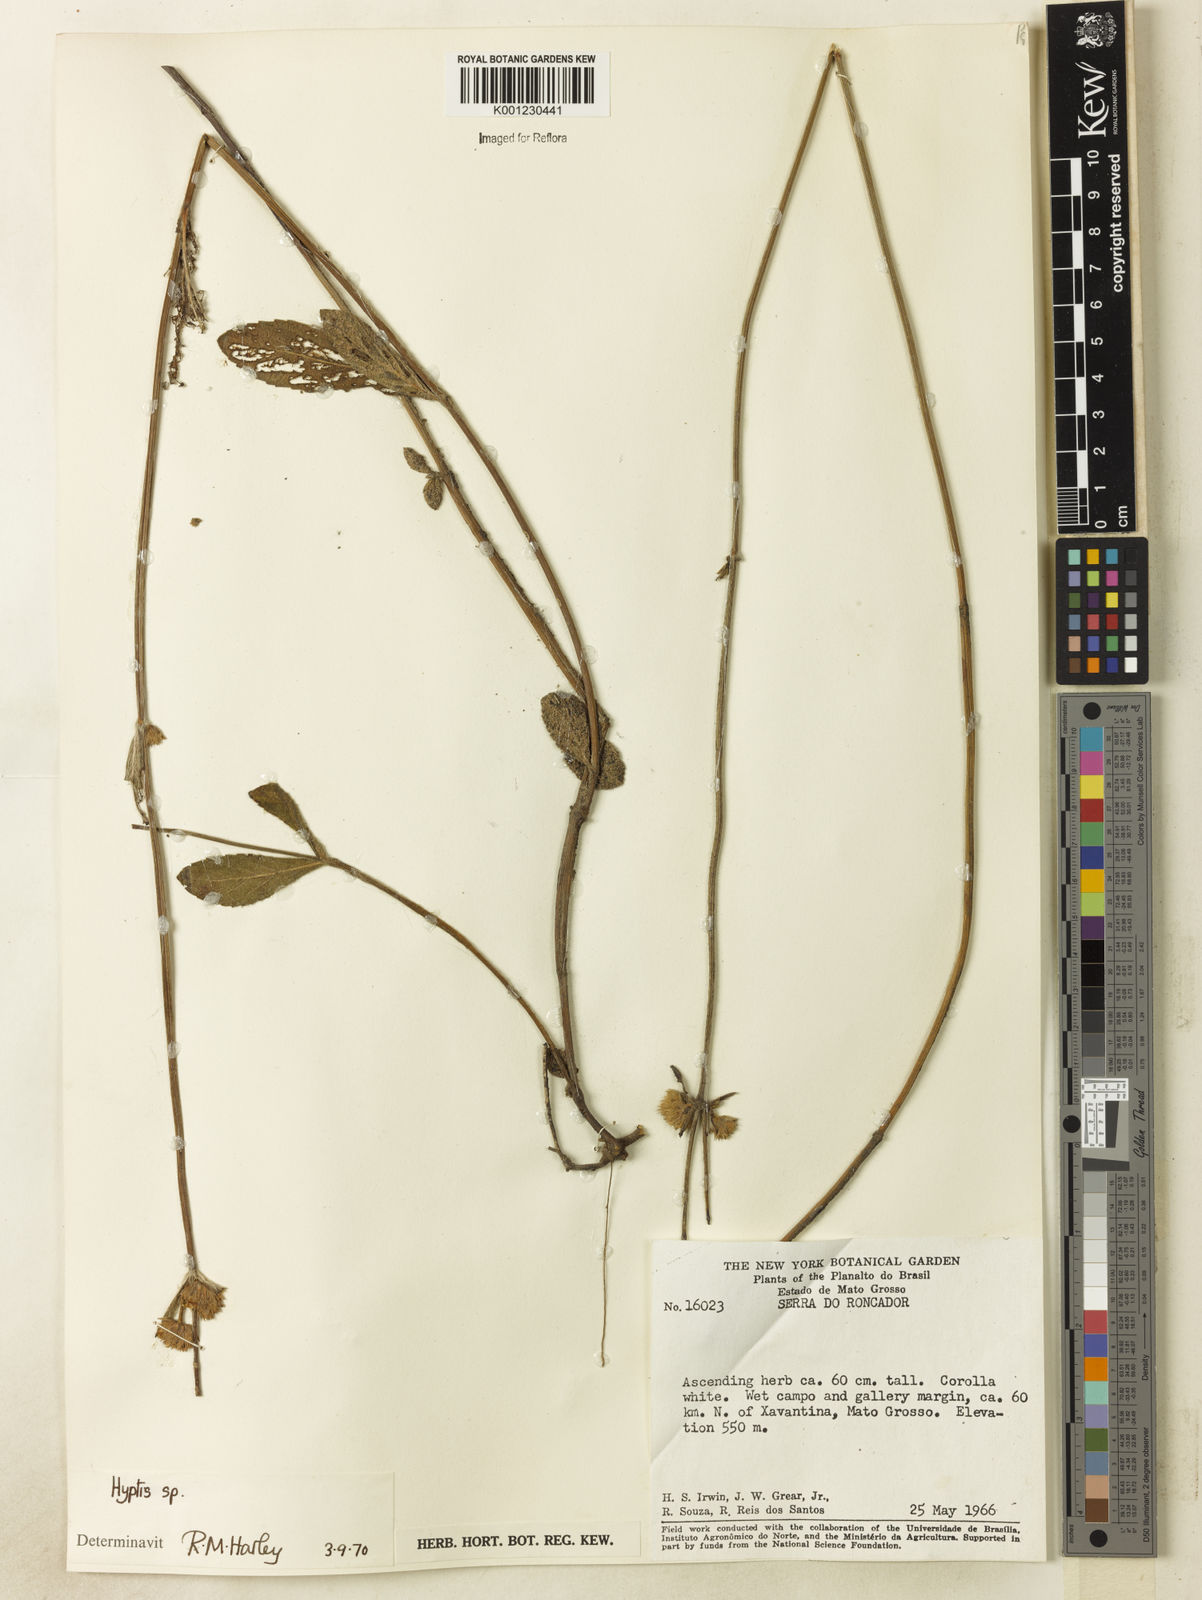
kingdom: Plantae
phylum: Tracheophyta
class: Magnoliopsida
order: Lamiales
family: Lamiaceae
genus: Hyptis
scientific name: Hyptis loeseneriana
